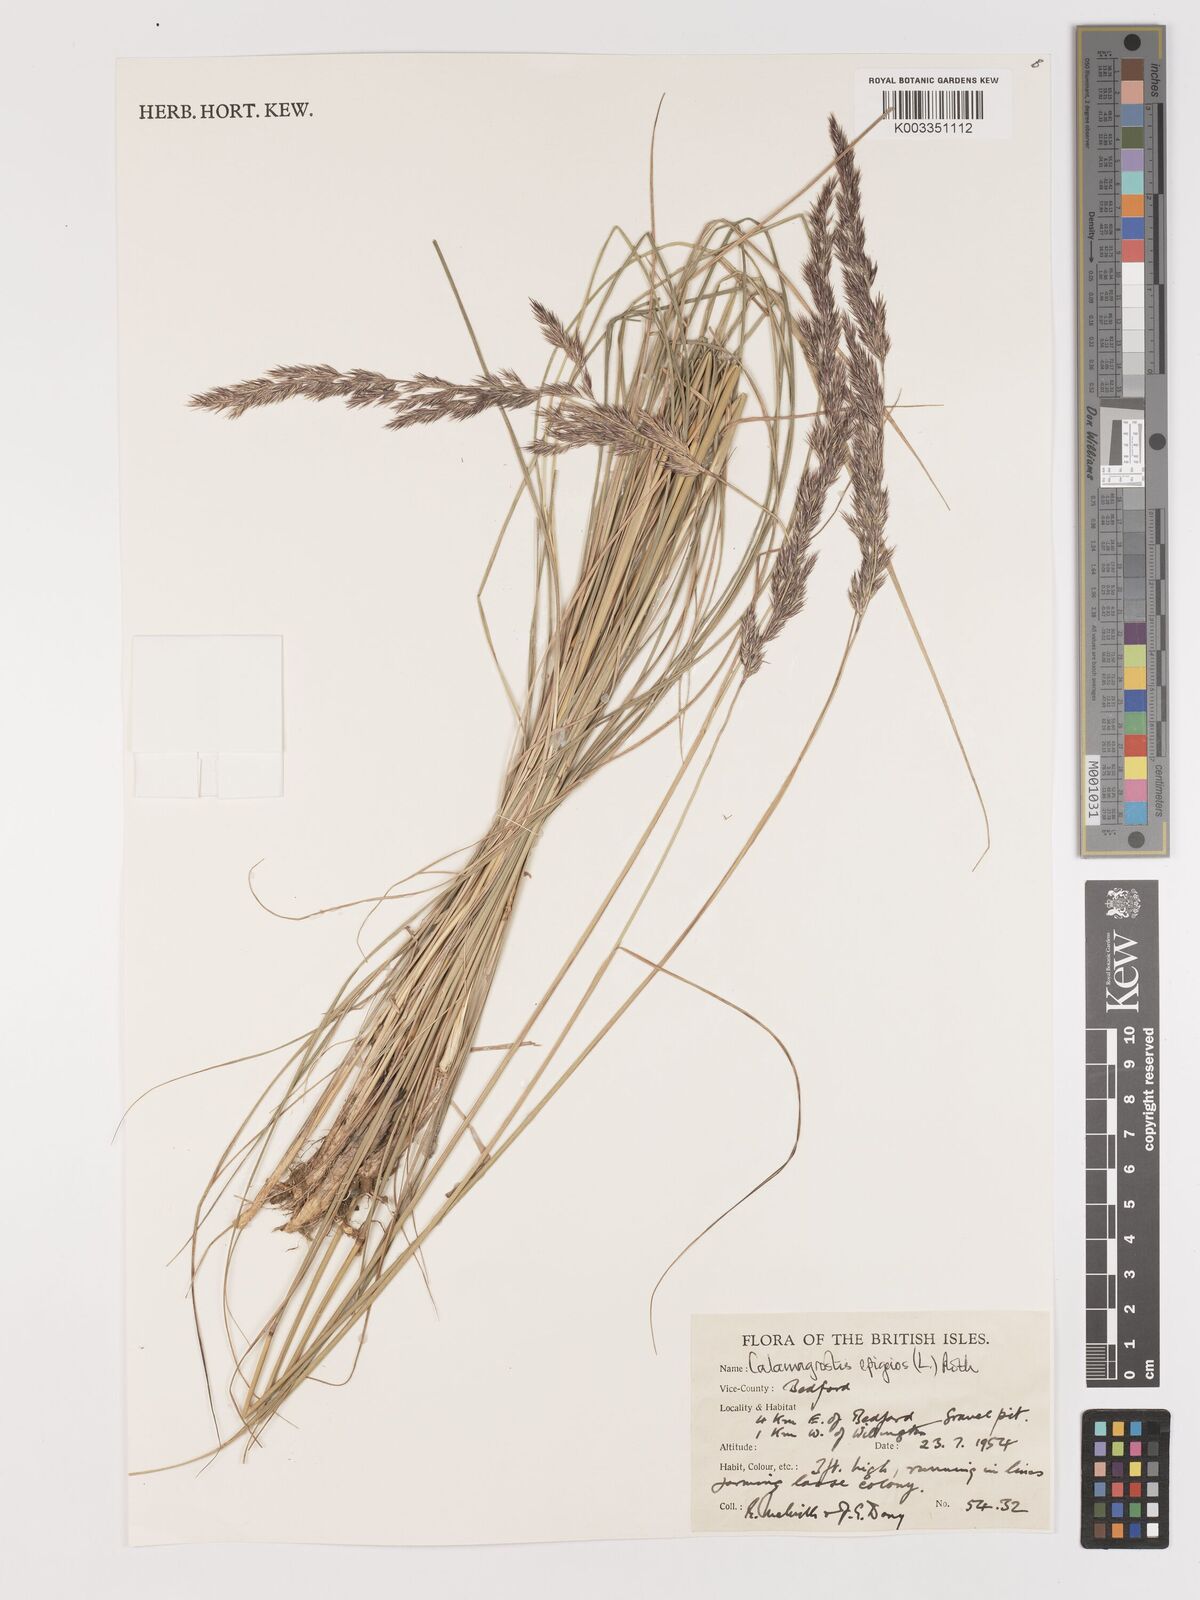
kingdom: Plantae
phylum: Tracheophyta
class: Liliopsida
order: Poales
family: Poaceae
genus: Calamagrostis
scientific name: Calamagrostis
